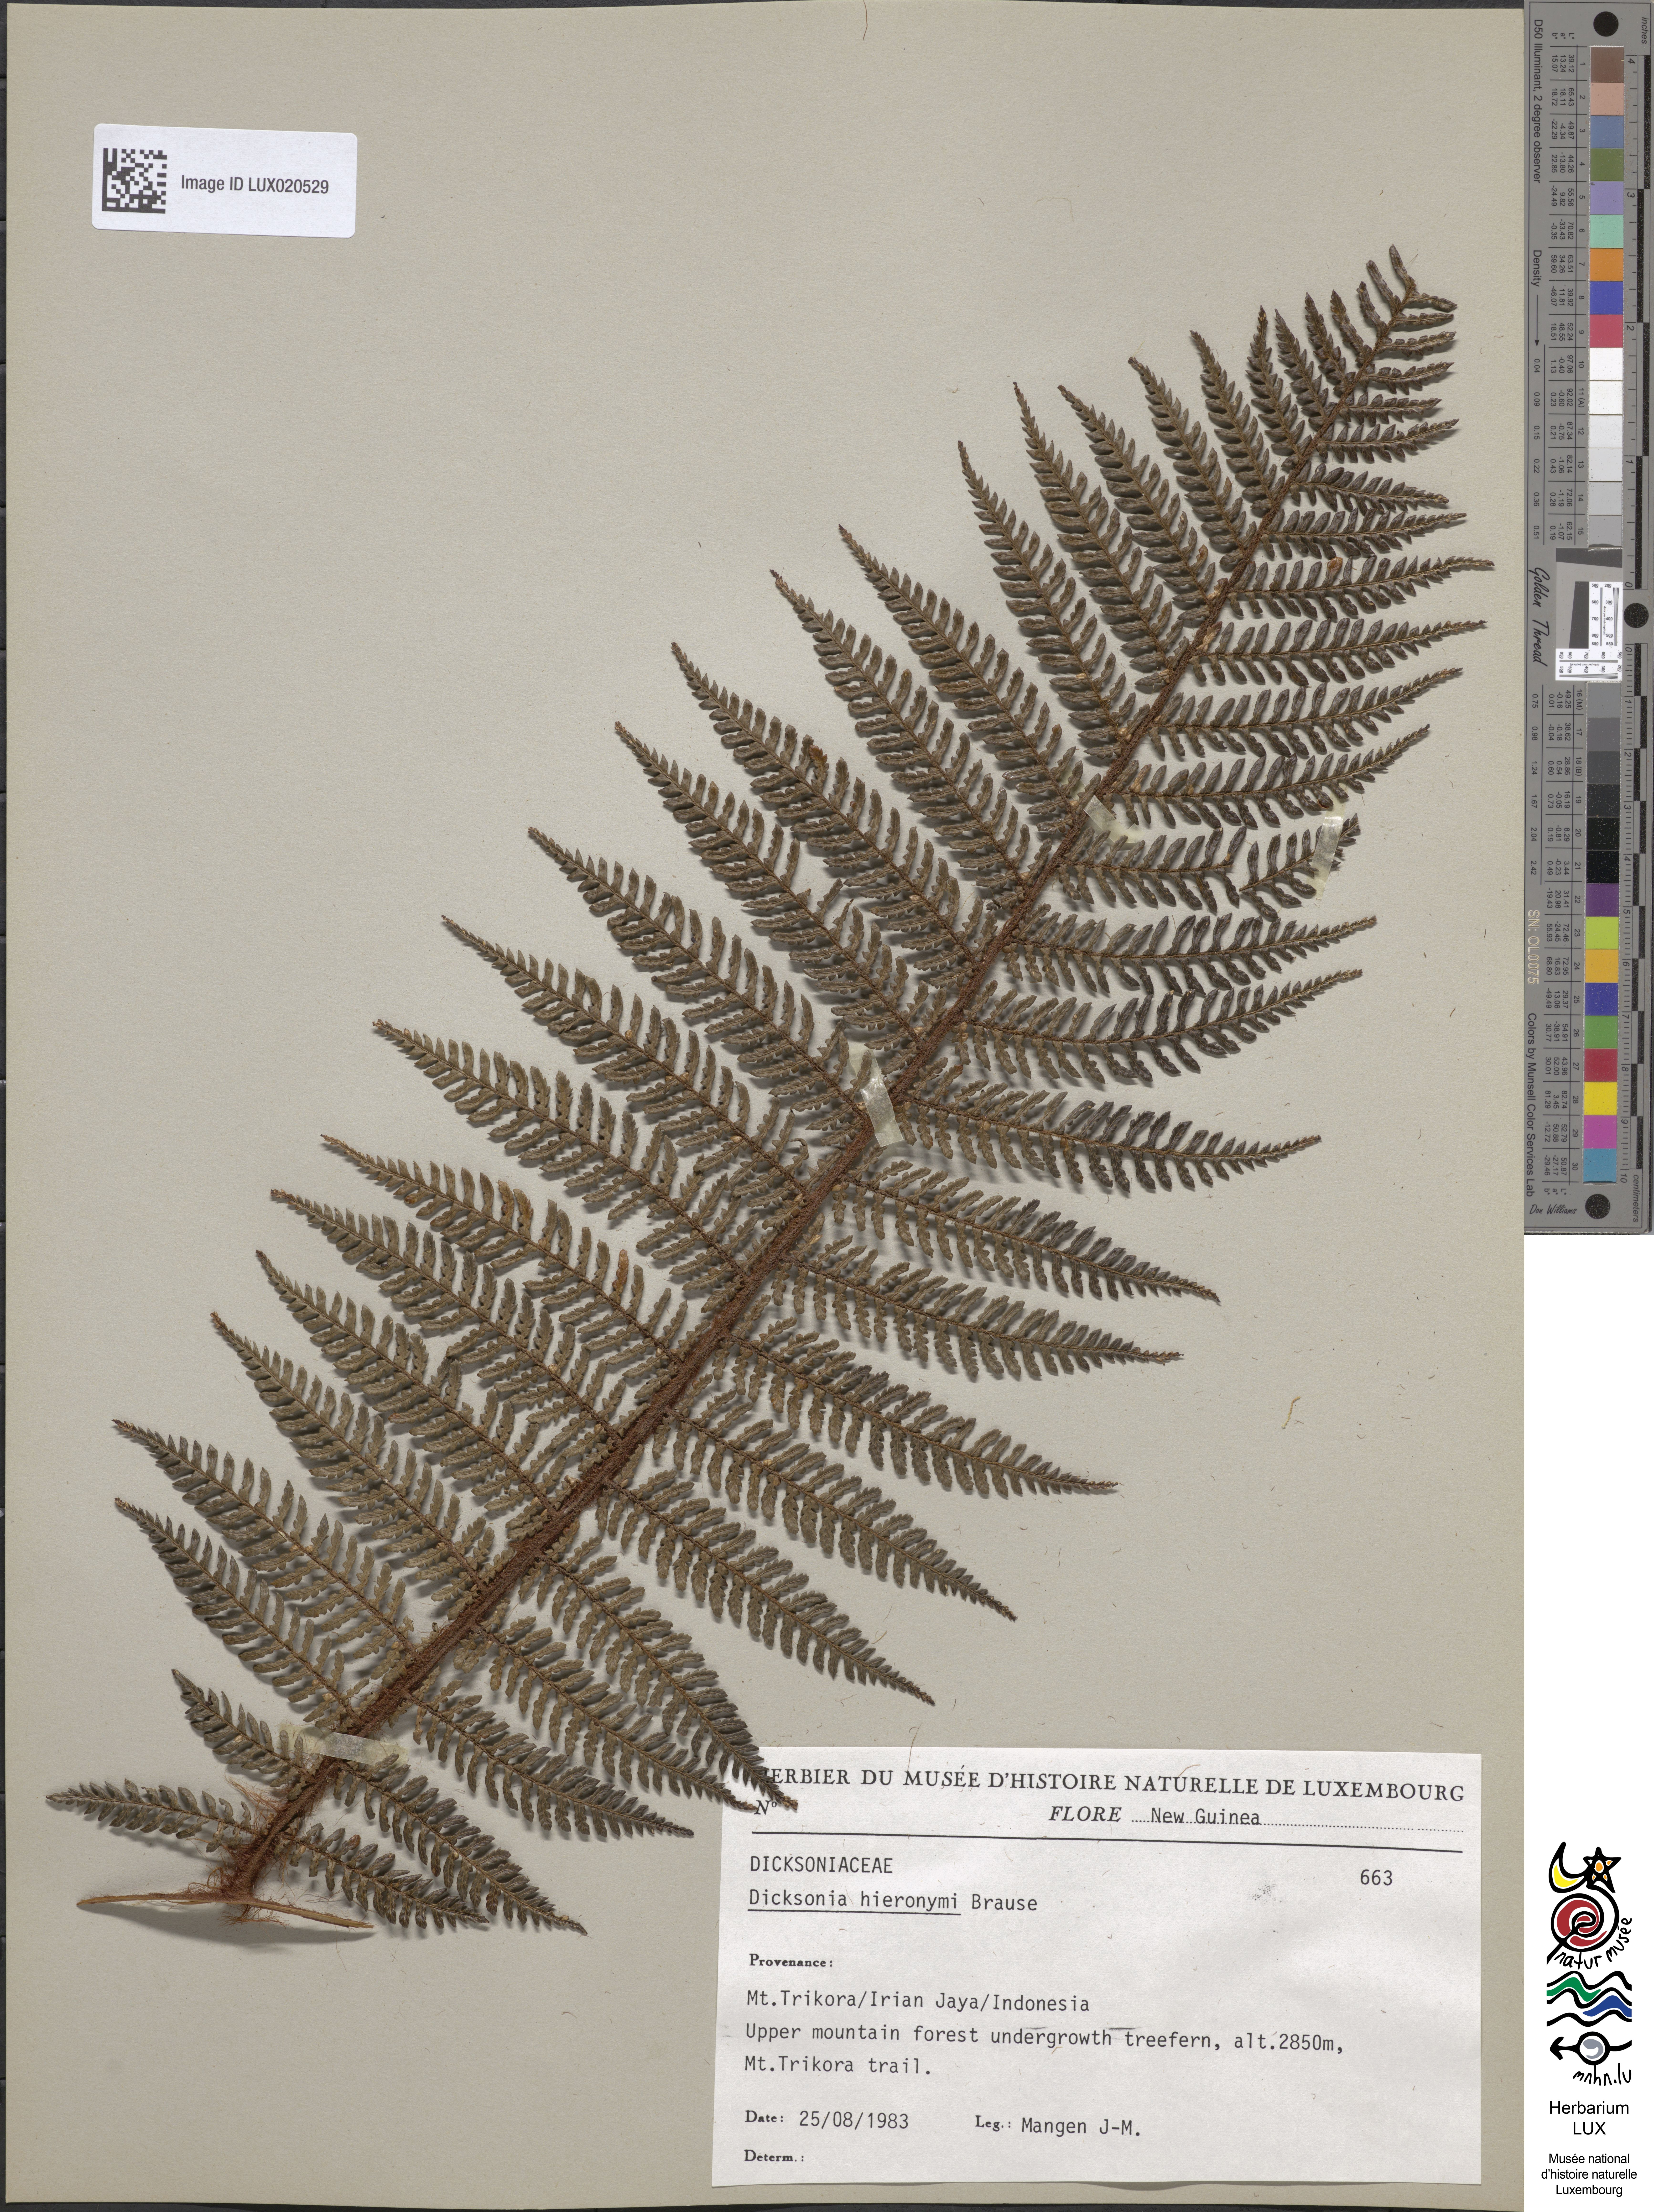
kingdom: Plantae
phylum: Tracheophyta
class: Polypodiopsida
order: Cyatheales
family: Dicksoniaceae
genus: Dicksonia
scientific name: Dicksonia hieronymi
